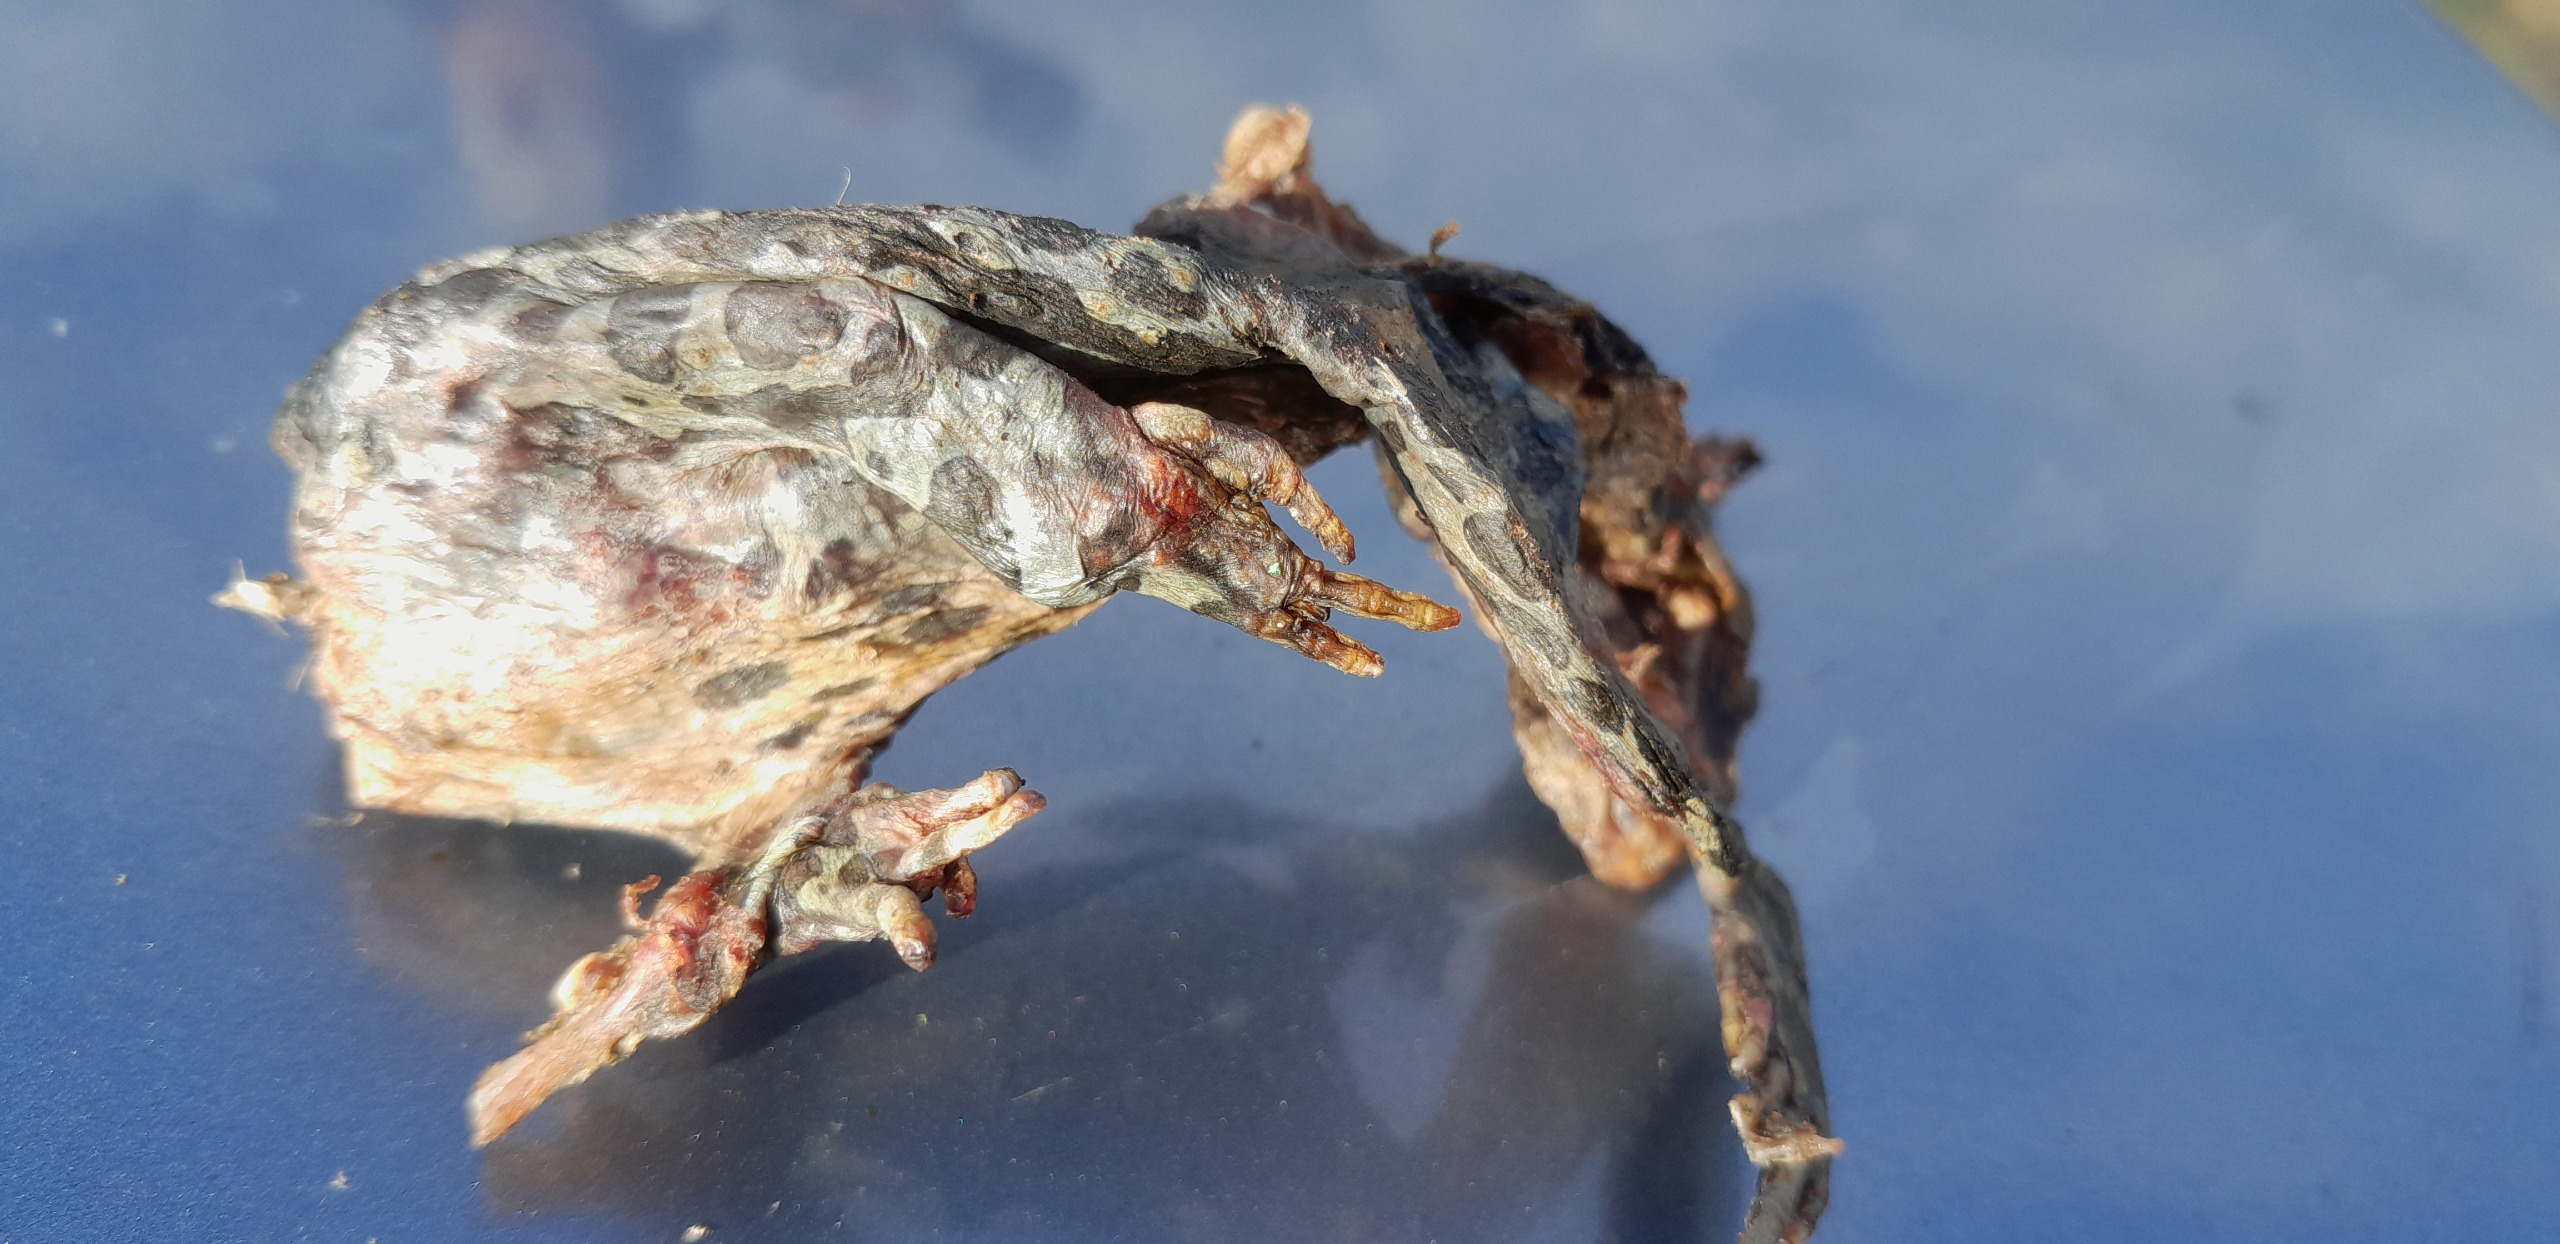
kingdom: Animalia
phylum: Chordata
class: Amphibia
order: Anura
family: Bufonidae
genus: Bufotes
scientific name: Bufotes viridis
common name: Grønbroget tudse
